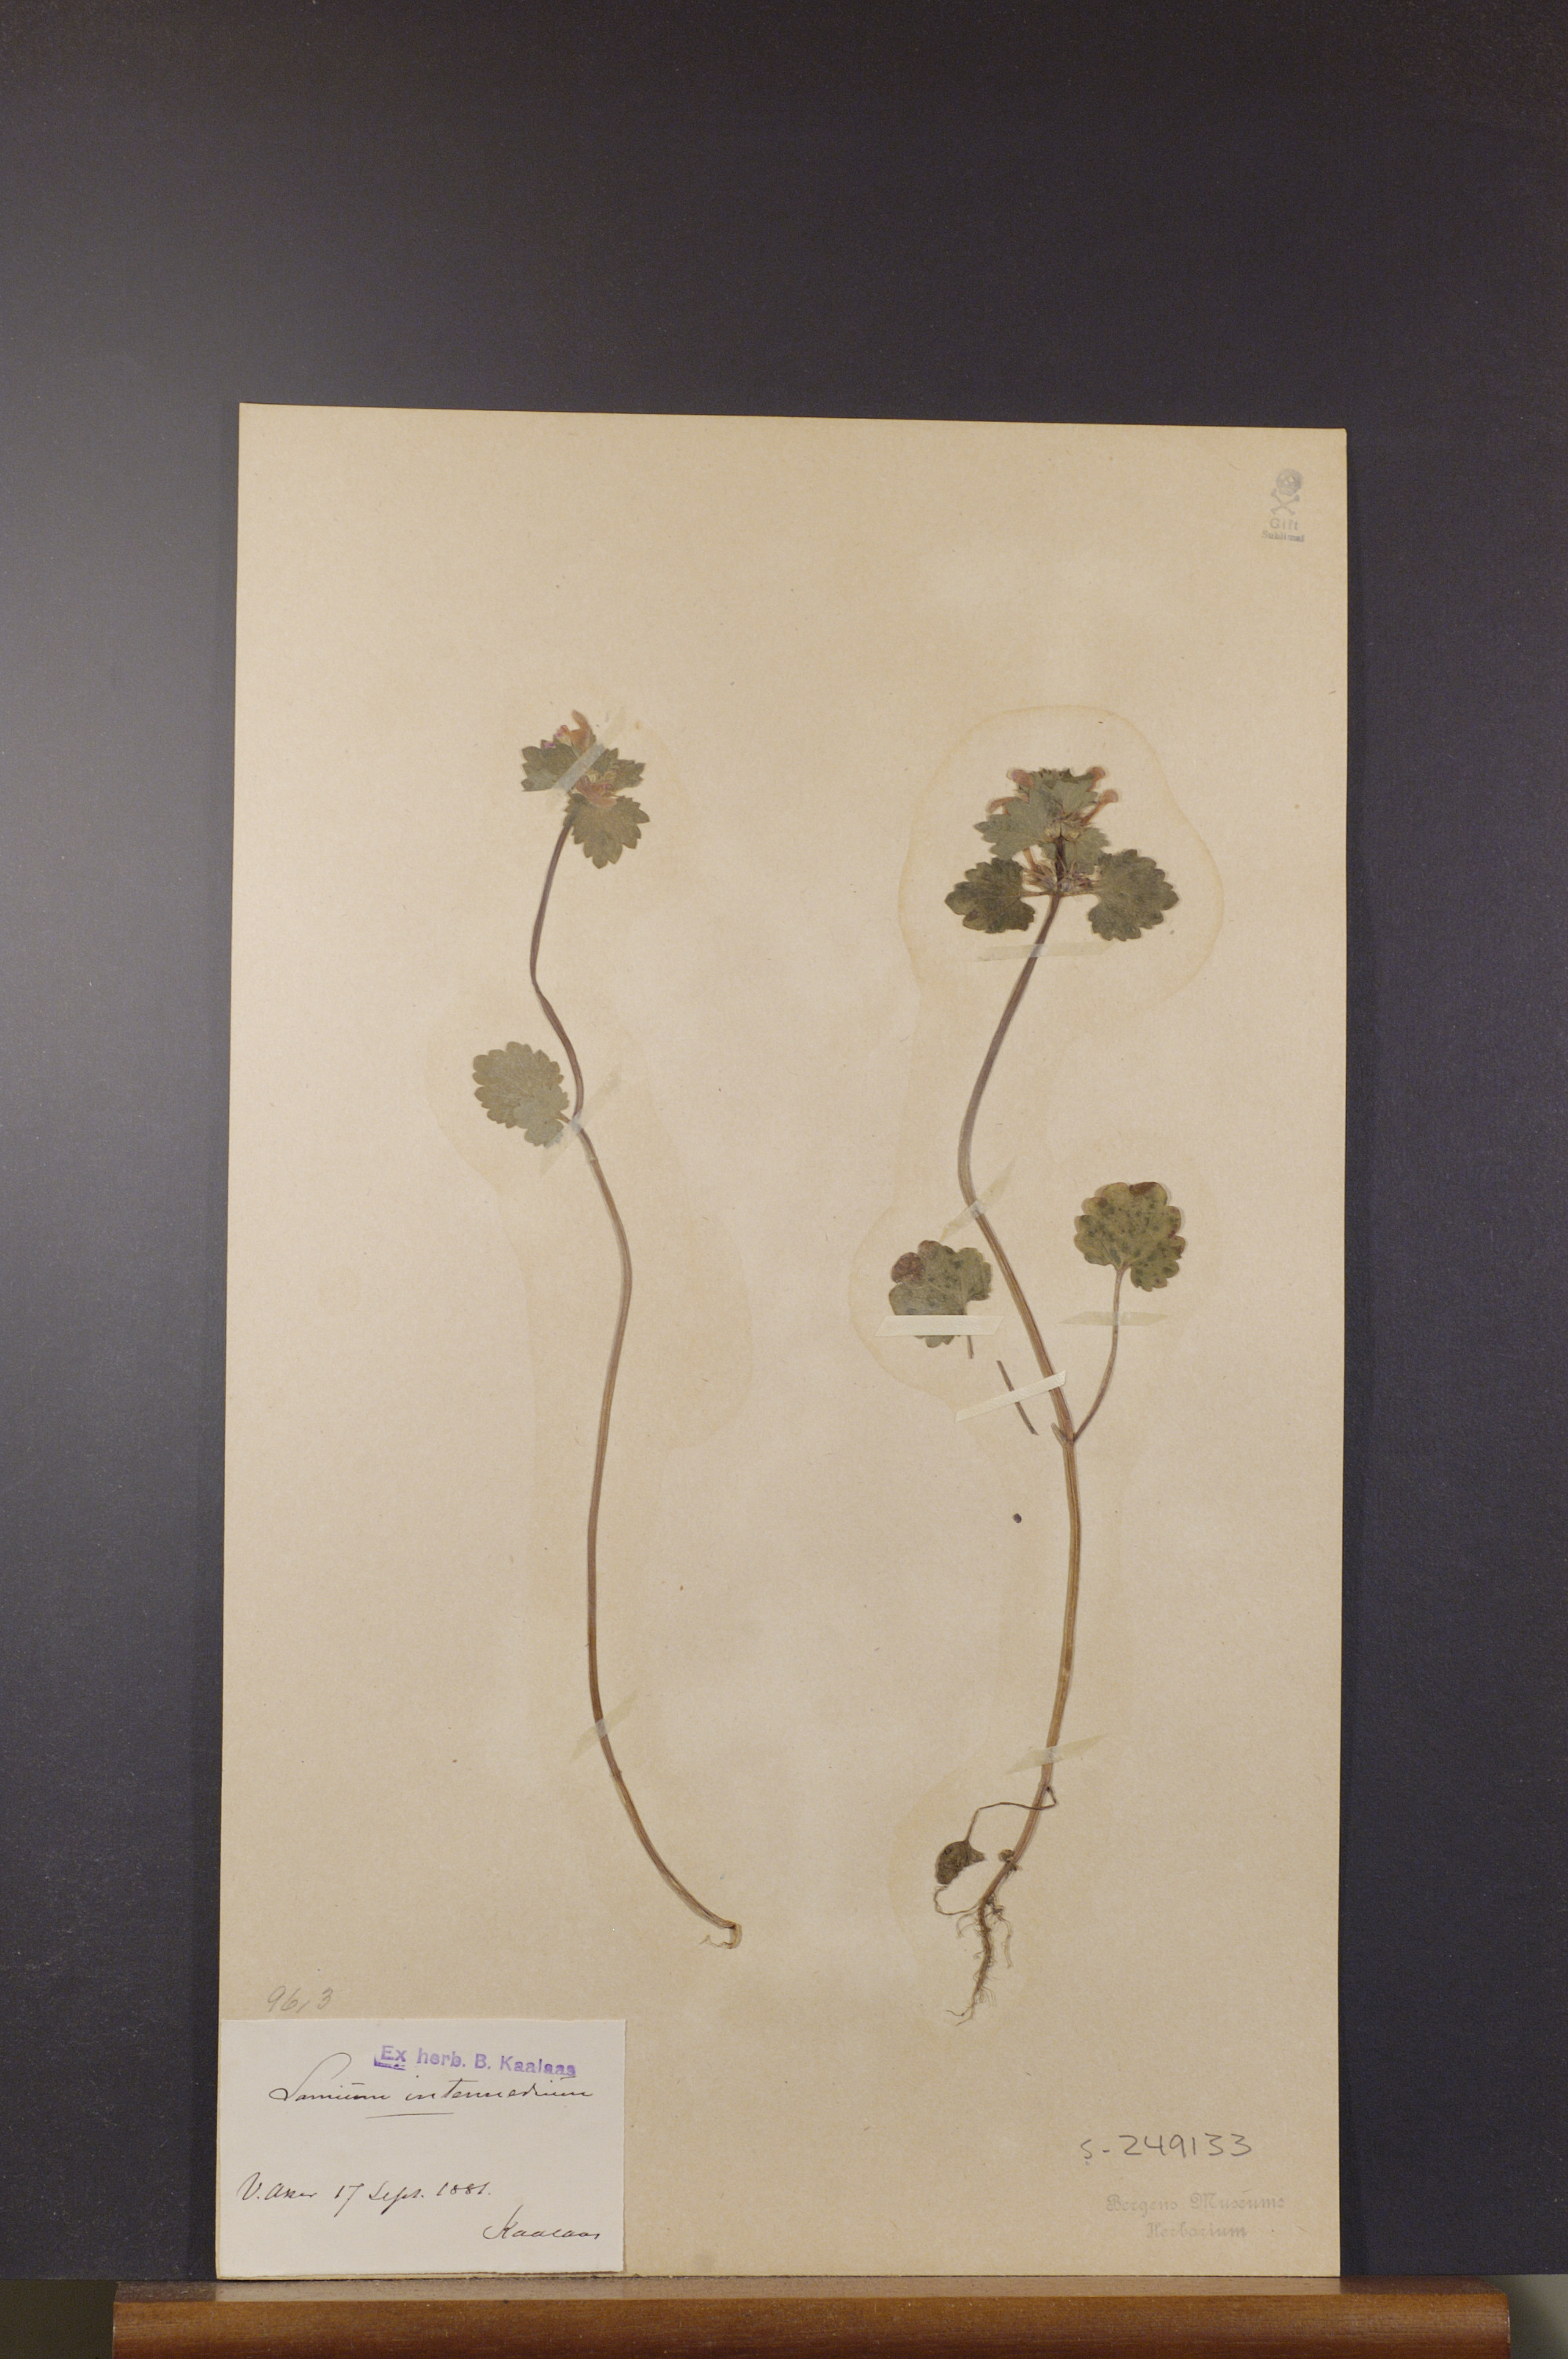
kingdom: Plantae
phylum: Tracheophyta
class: Magnoliopsida
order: Lamiales
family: Lamiaceae
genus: Lamium
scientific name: Lamium confertum
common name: Northern dead-nettle
